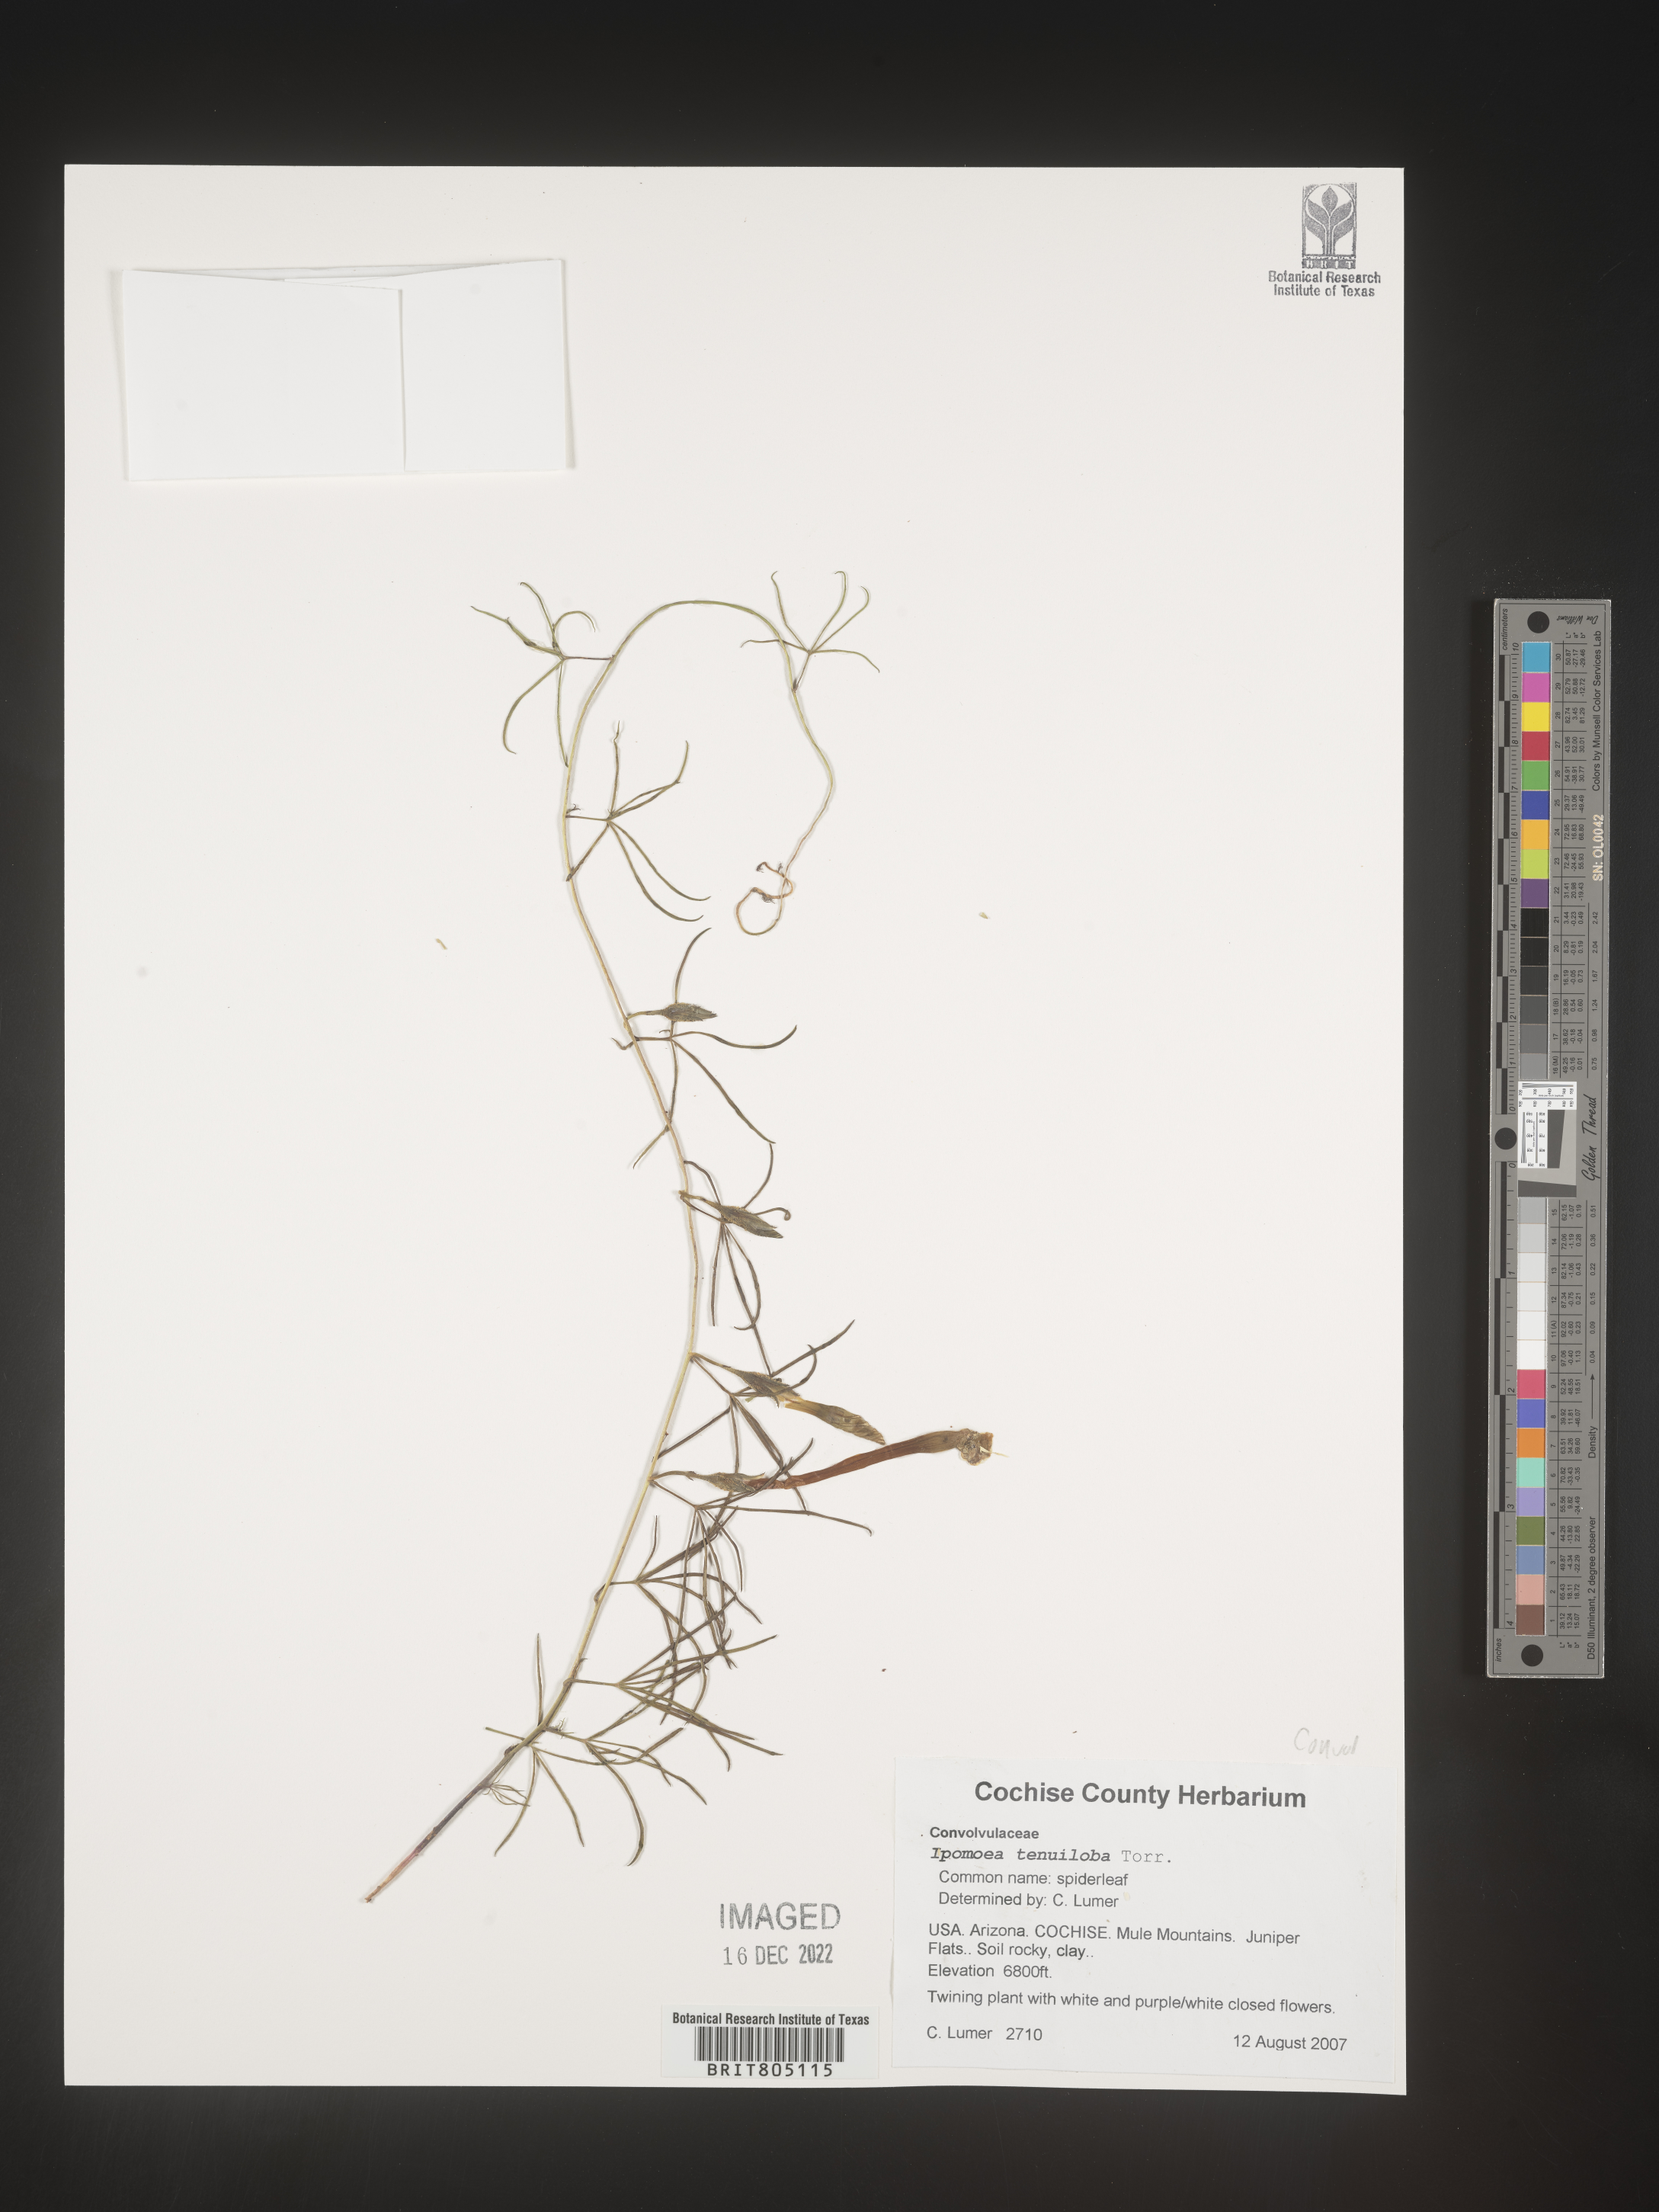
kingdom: Plantae
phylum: Tracheophyta
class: Magnoliopsida
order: Solanales
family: Convolvulaceae
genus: Ipomoea
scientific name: Ipomoea tenuiloba
